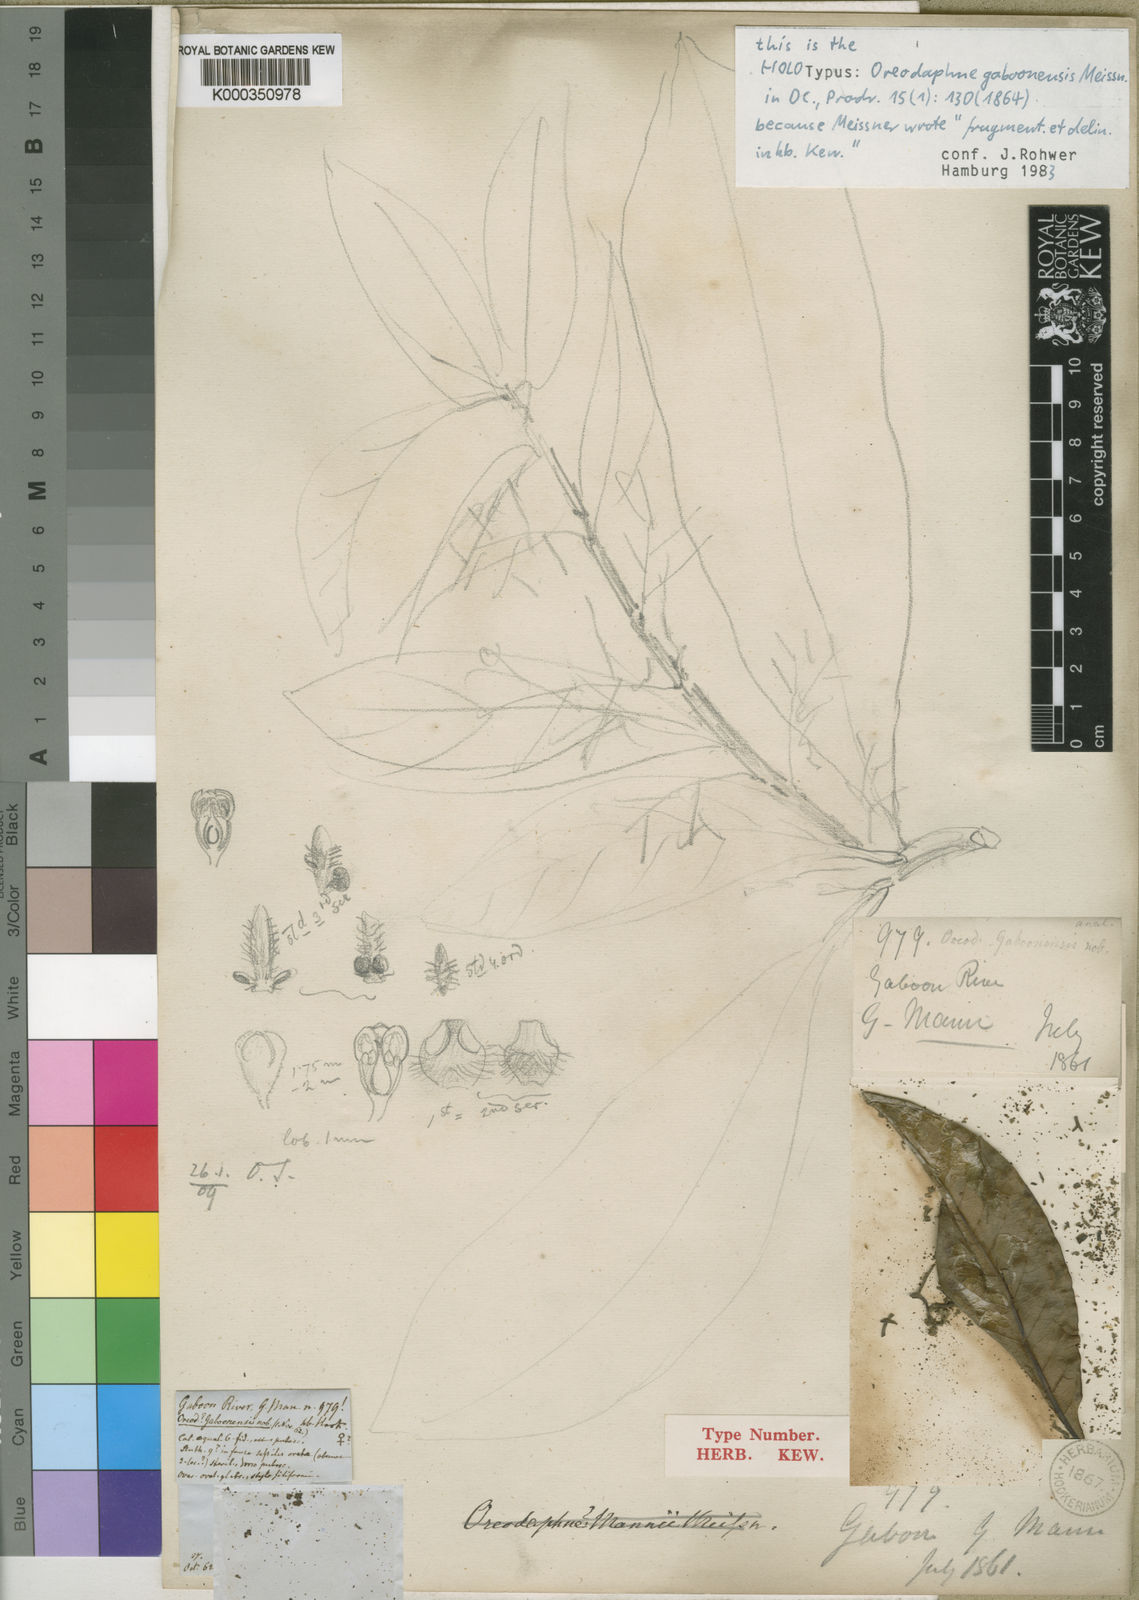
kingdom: Plantae
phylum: Tracheophyta
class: Magnoliopsida
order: Laurales
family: Lauraceae
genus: Beilschmiedia
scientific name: Beilschmiedia
